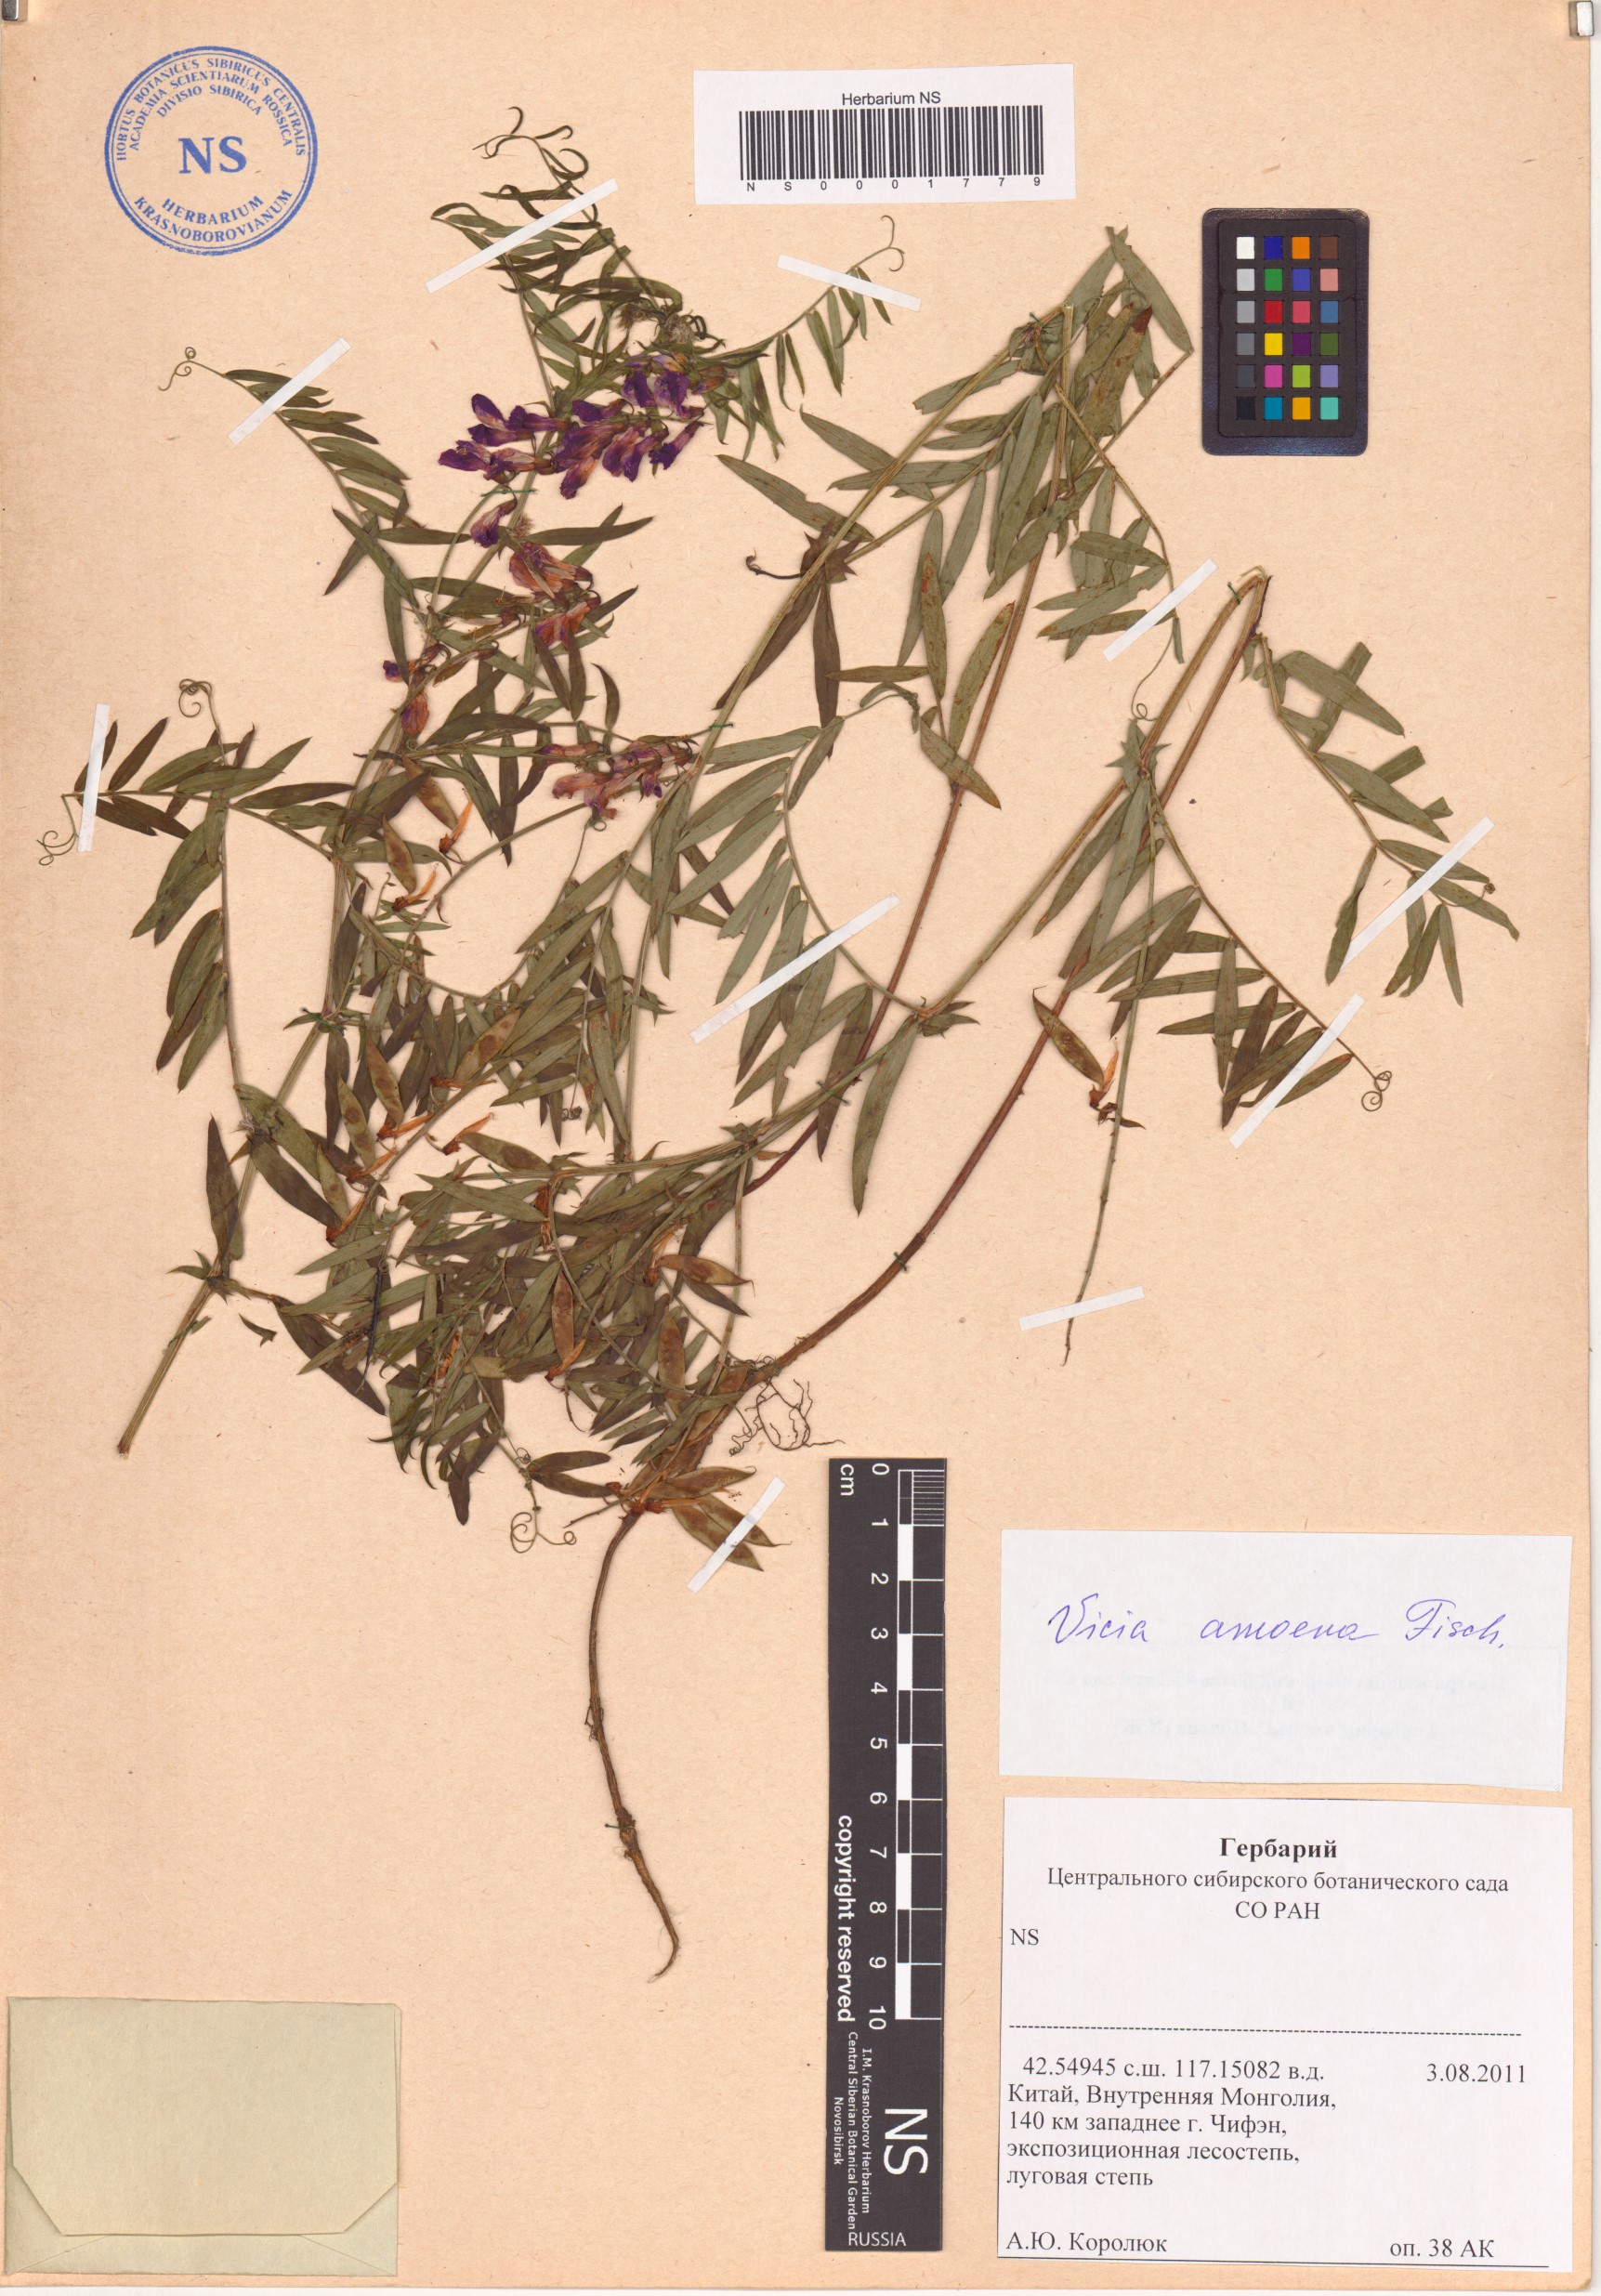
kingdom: Plantae
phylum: Tracheophyta
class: Magnoliopsida
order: Fabales
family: Fabaceae
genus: Vicia
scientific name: Vicia amoena
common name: Cheder ebs
